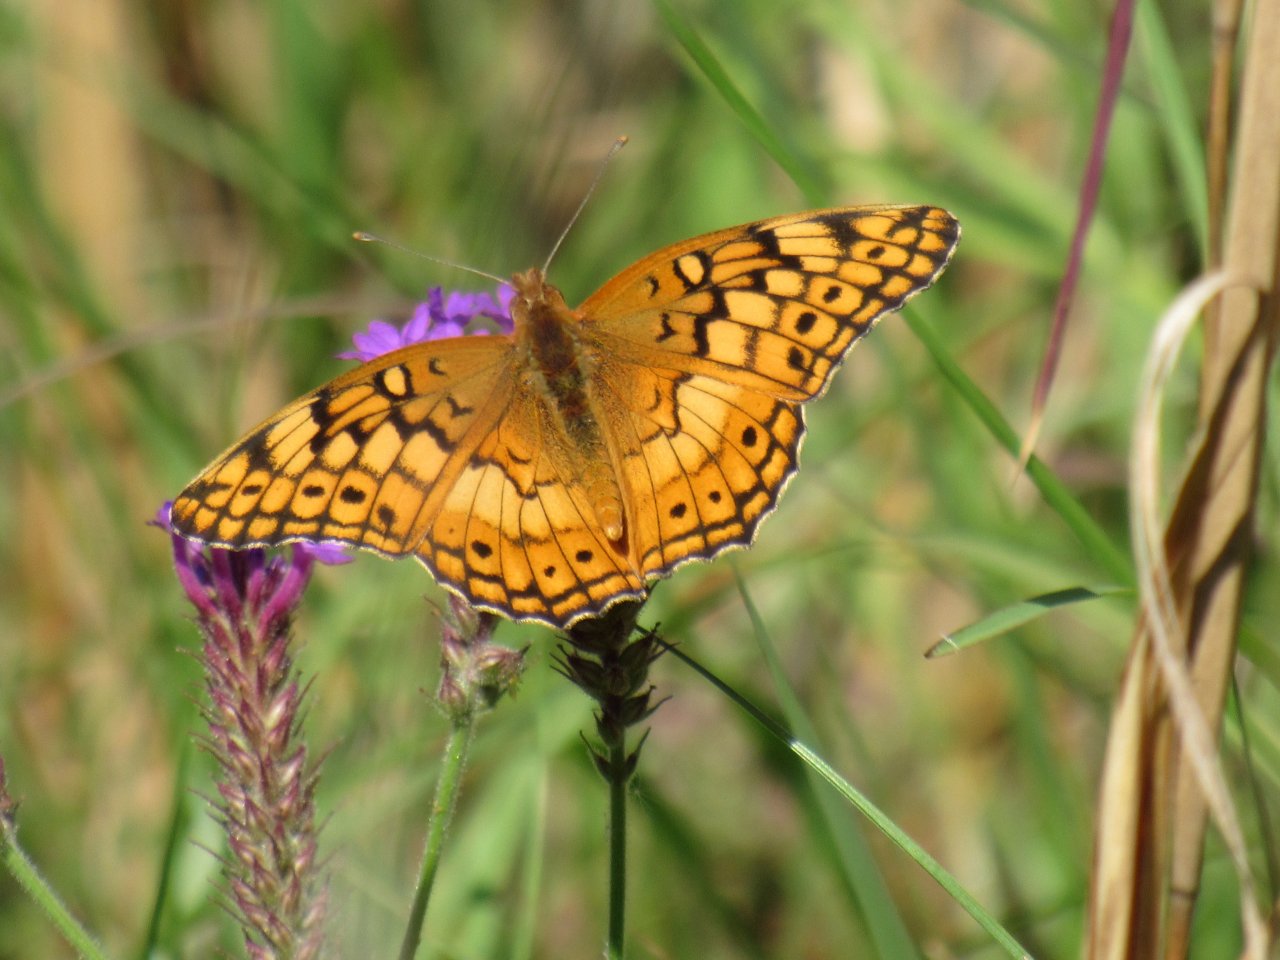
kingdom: Animalia
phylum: Arthropoda
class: Insecta
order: Lepidoptera
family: Nymphalidae
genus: Euptoieta
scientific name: Euptoieta claudia
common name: Variegated Fritillary
